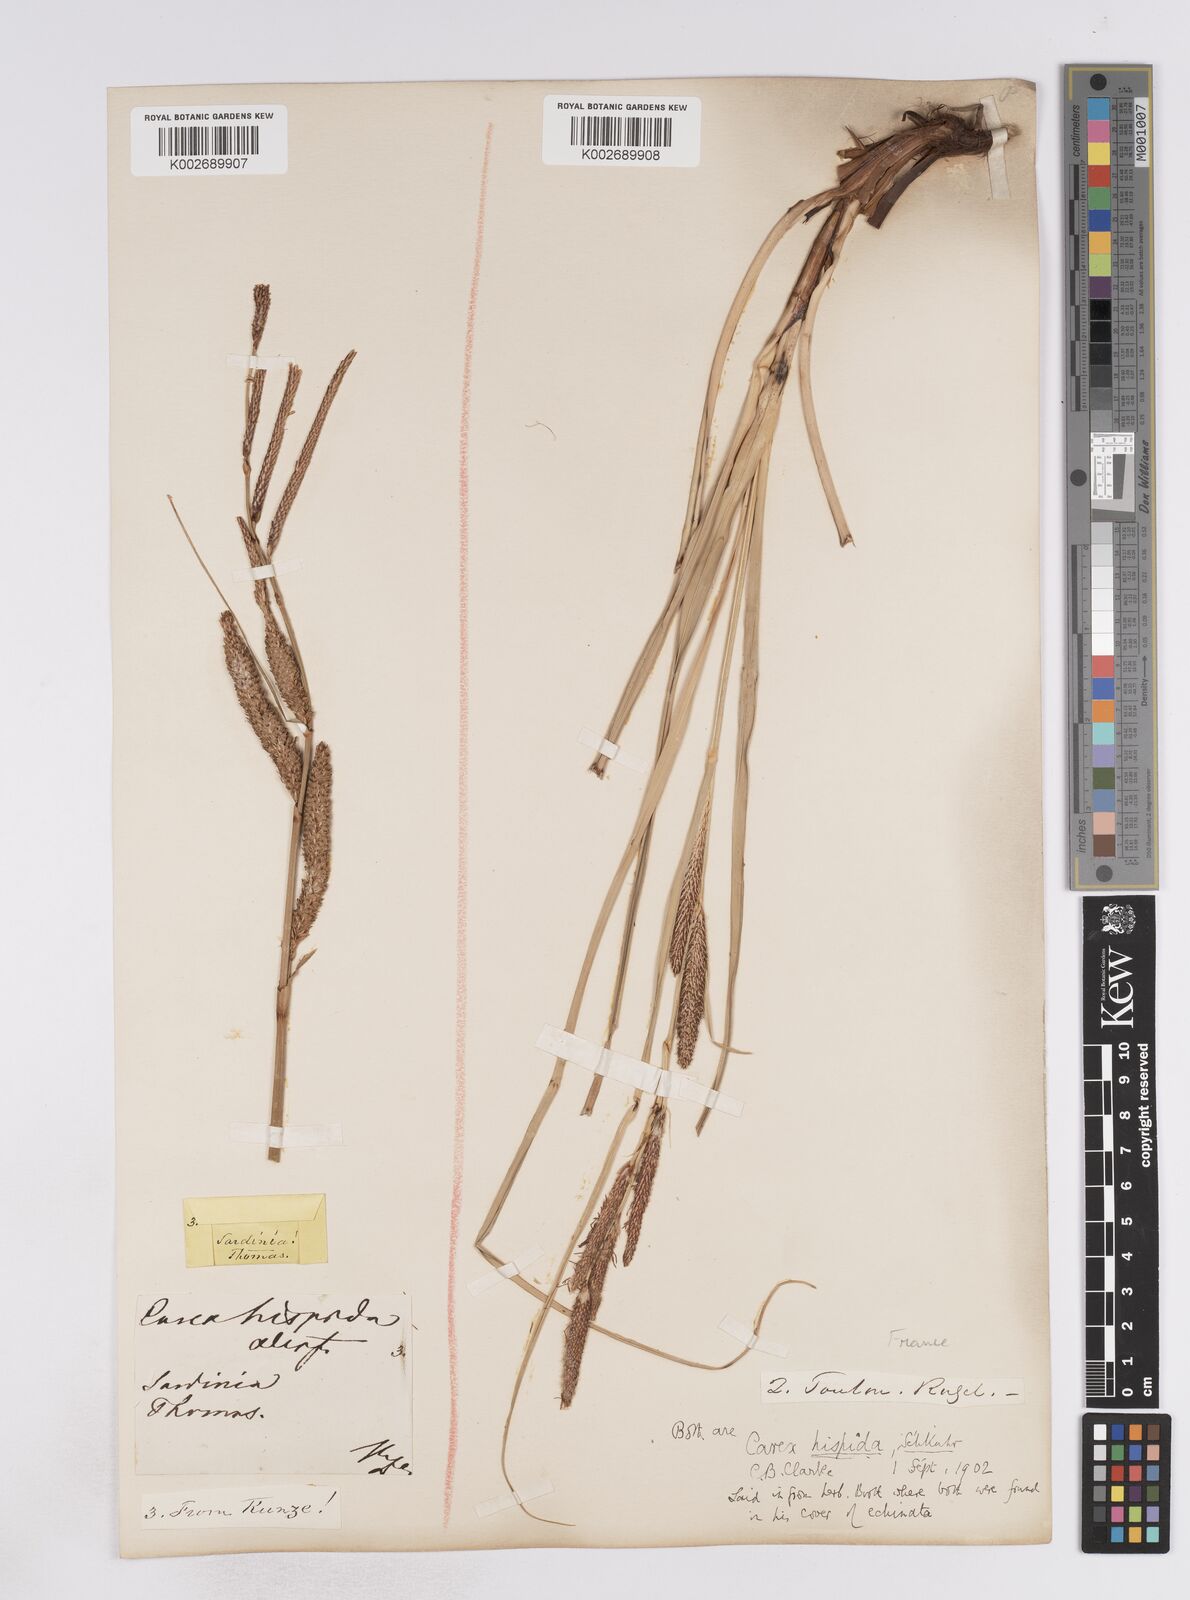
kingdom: Plantae
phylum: Tracheophyta
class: Liliopsida
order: Poales
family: Cyperaceae
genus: Carex
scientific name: Carex hispida
